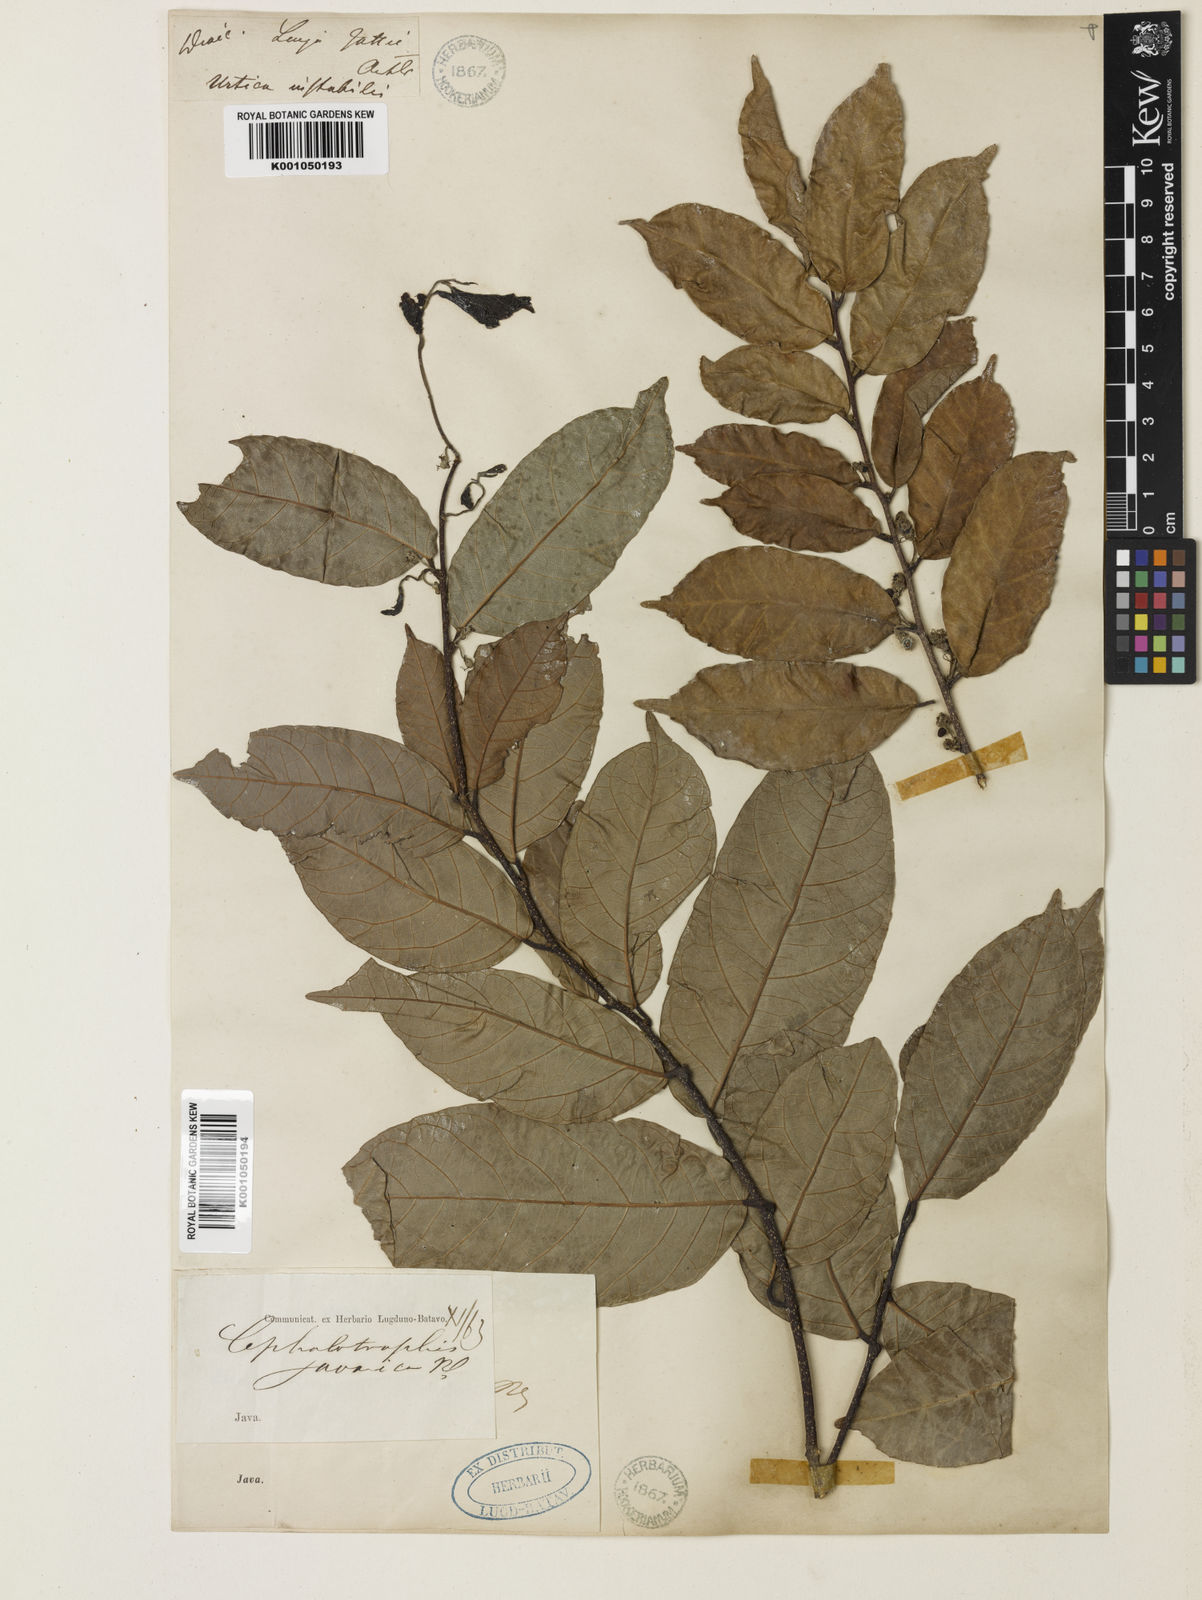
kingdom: Plantae
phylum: Tracheophyta
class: Magnoliopsida
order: Rosales
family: Moraceae
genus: Malaisia
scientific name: Malaisia scandens
